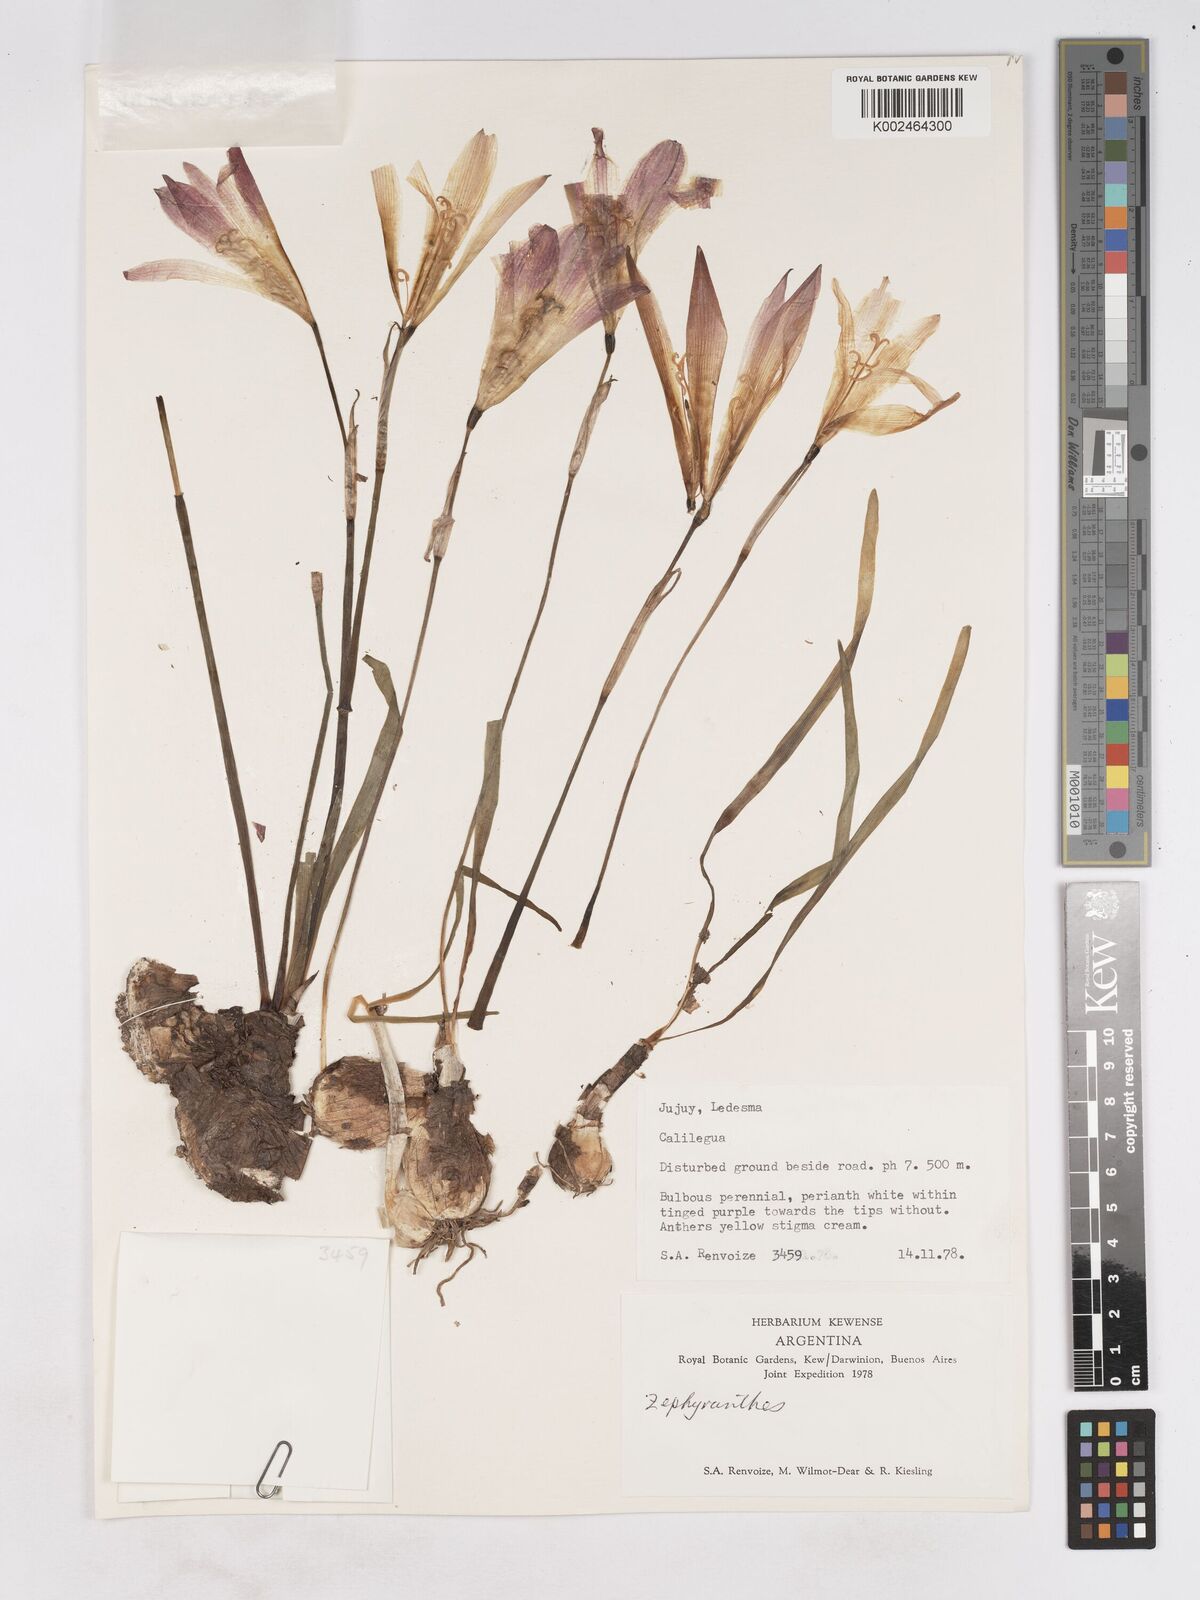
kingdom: Plantae
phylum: Tracheophyta
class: Liliopsida
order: Asparagales
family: Amaryllidaceae
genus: Zephyranthes
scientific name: Zephyranthes
